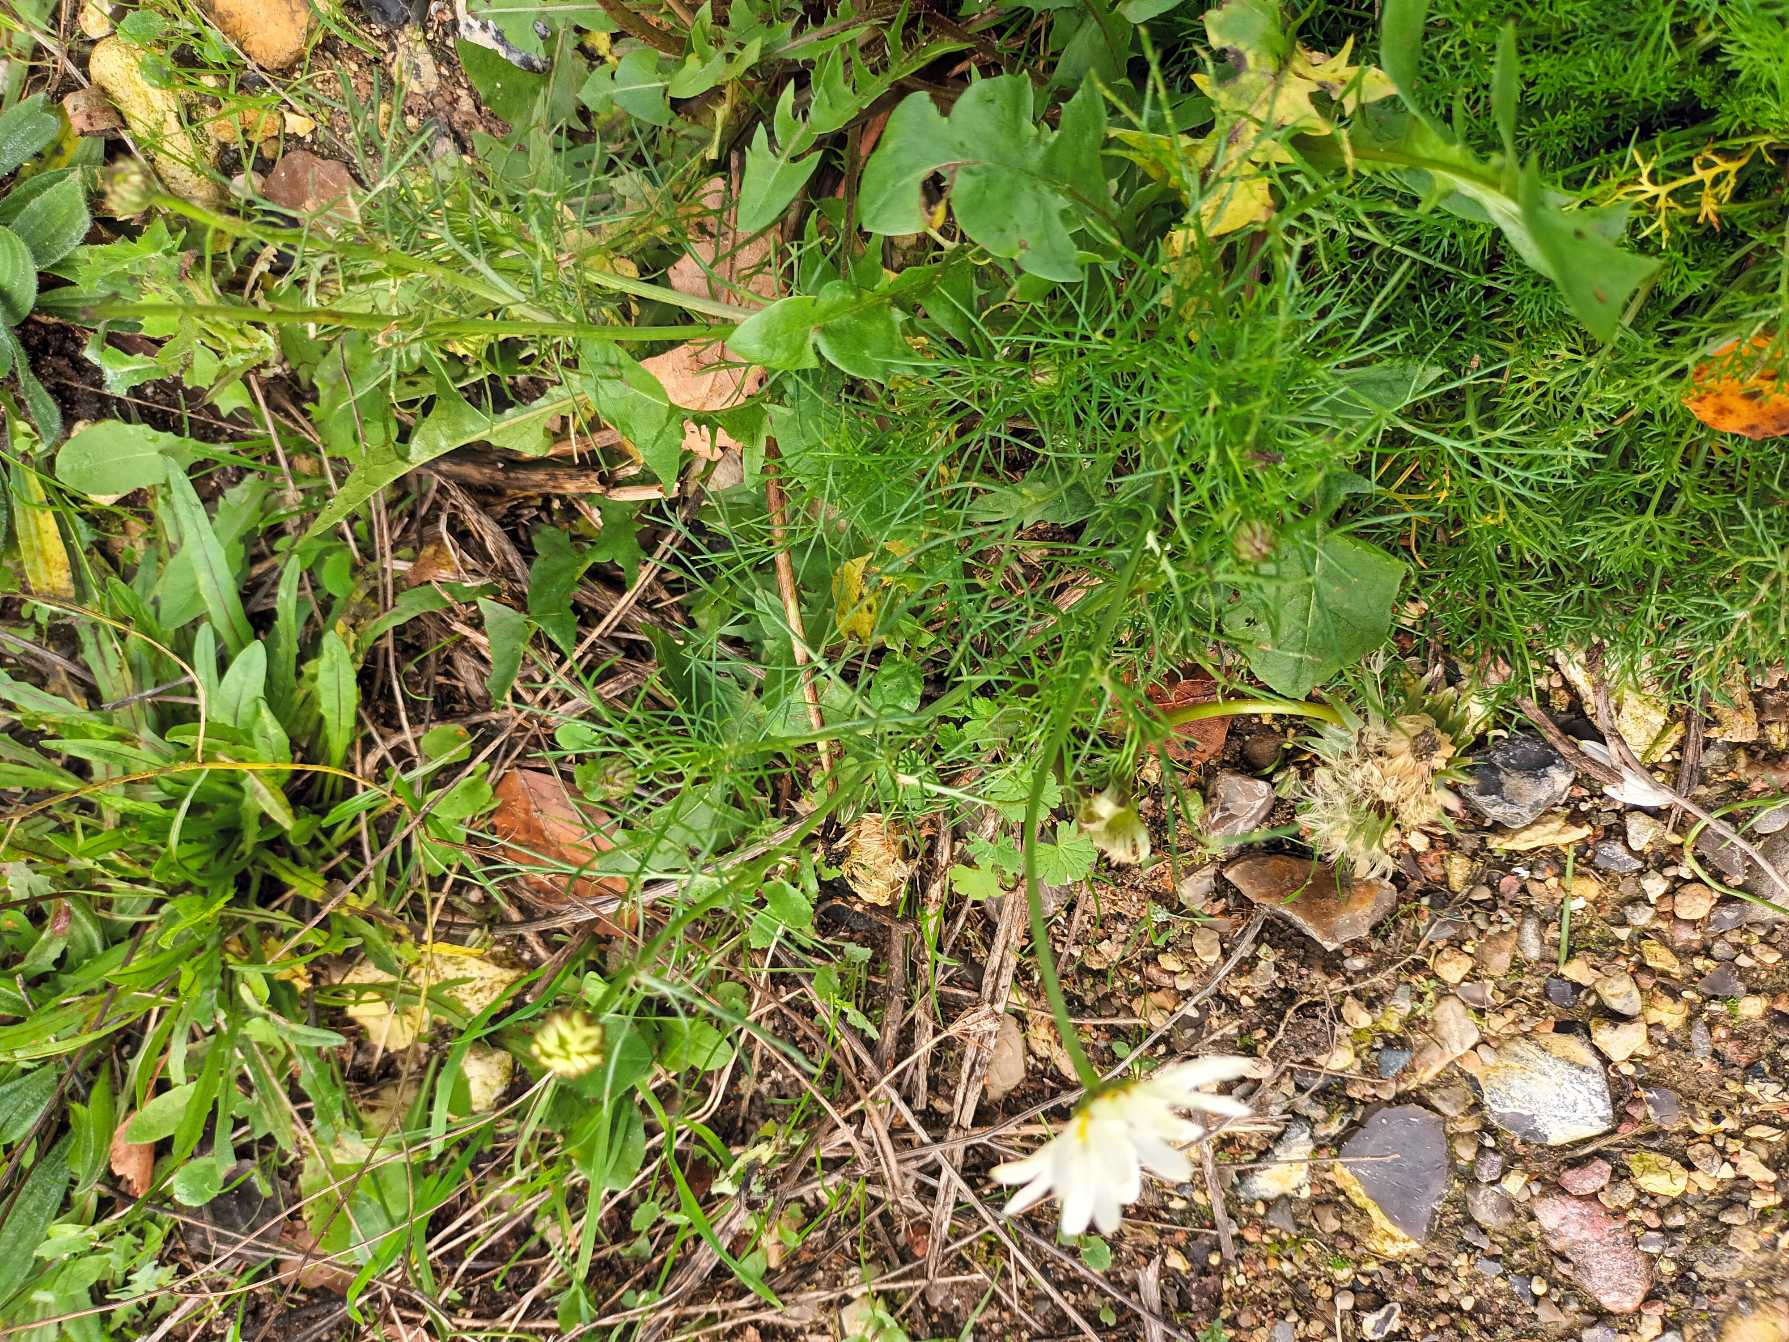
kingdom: Plantae
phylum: Tracheophyta
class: Magnoliopsida
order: Asterales
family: Asteraceae
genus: Tripleurospermum
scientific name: Tripleurospermum inodorum
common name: Lugtløs kamille
